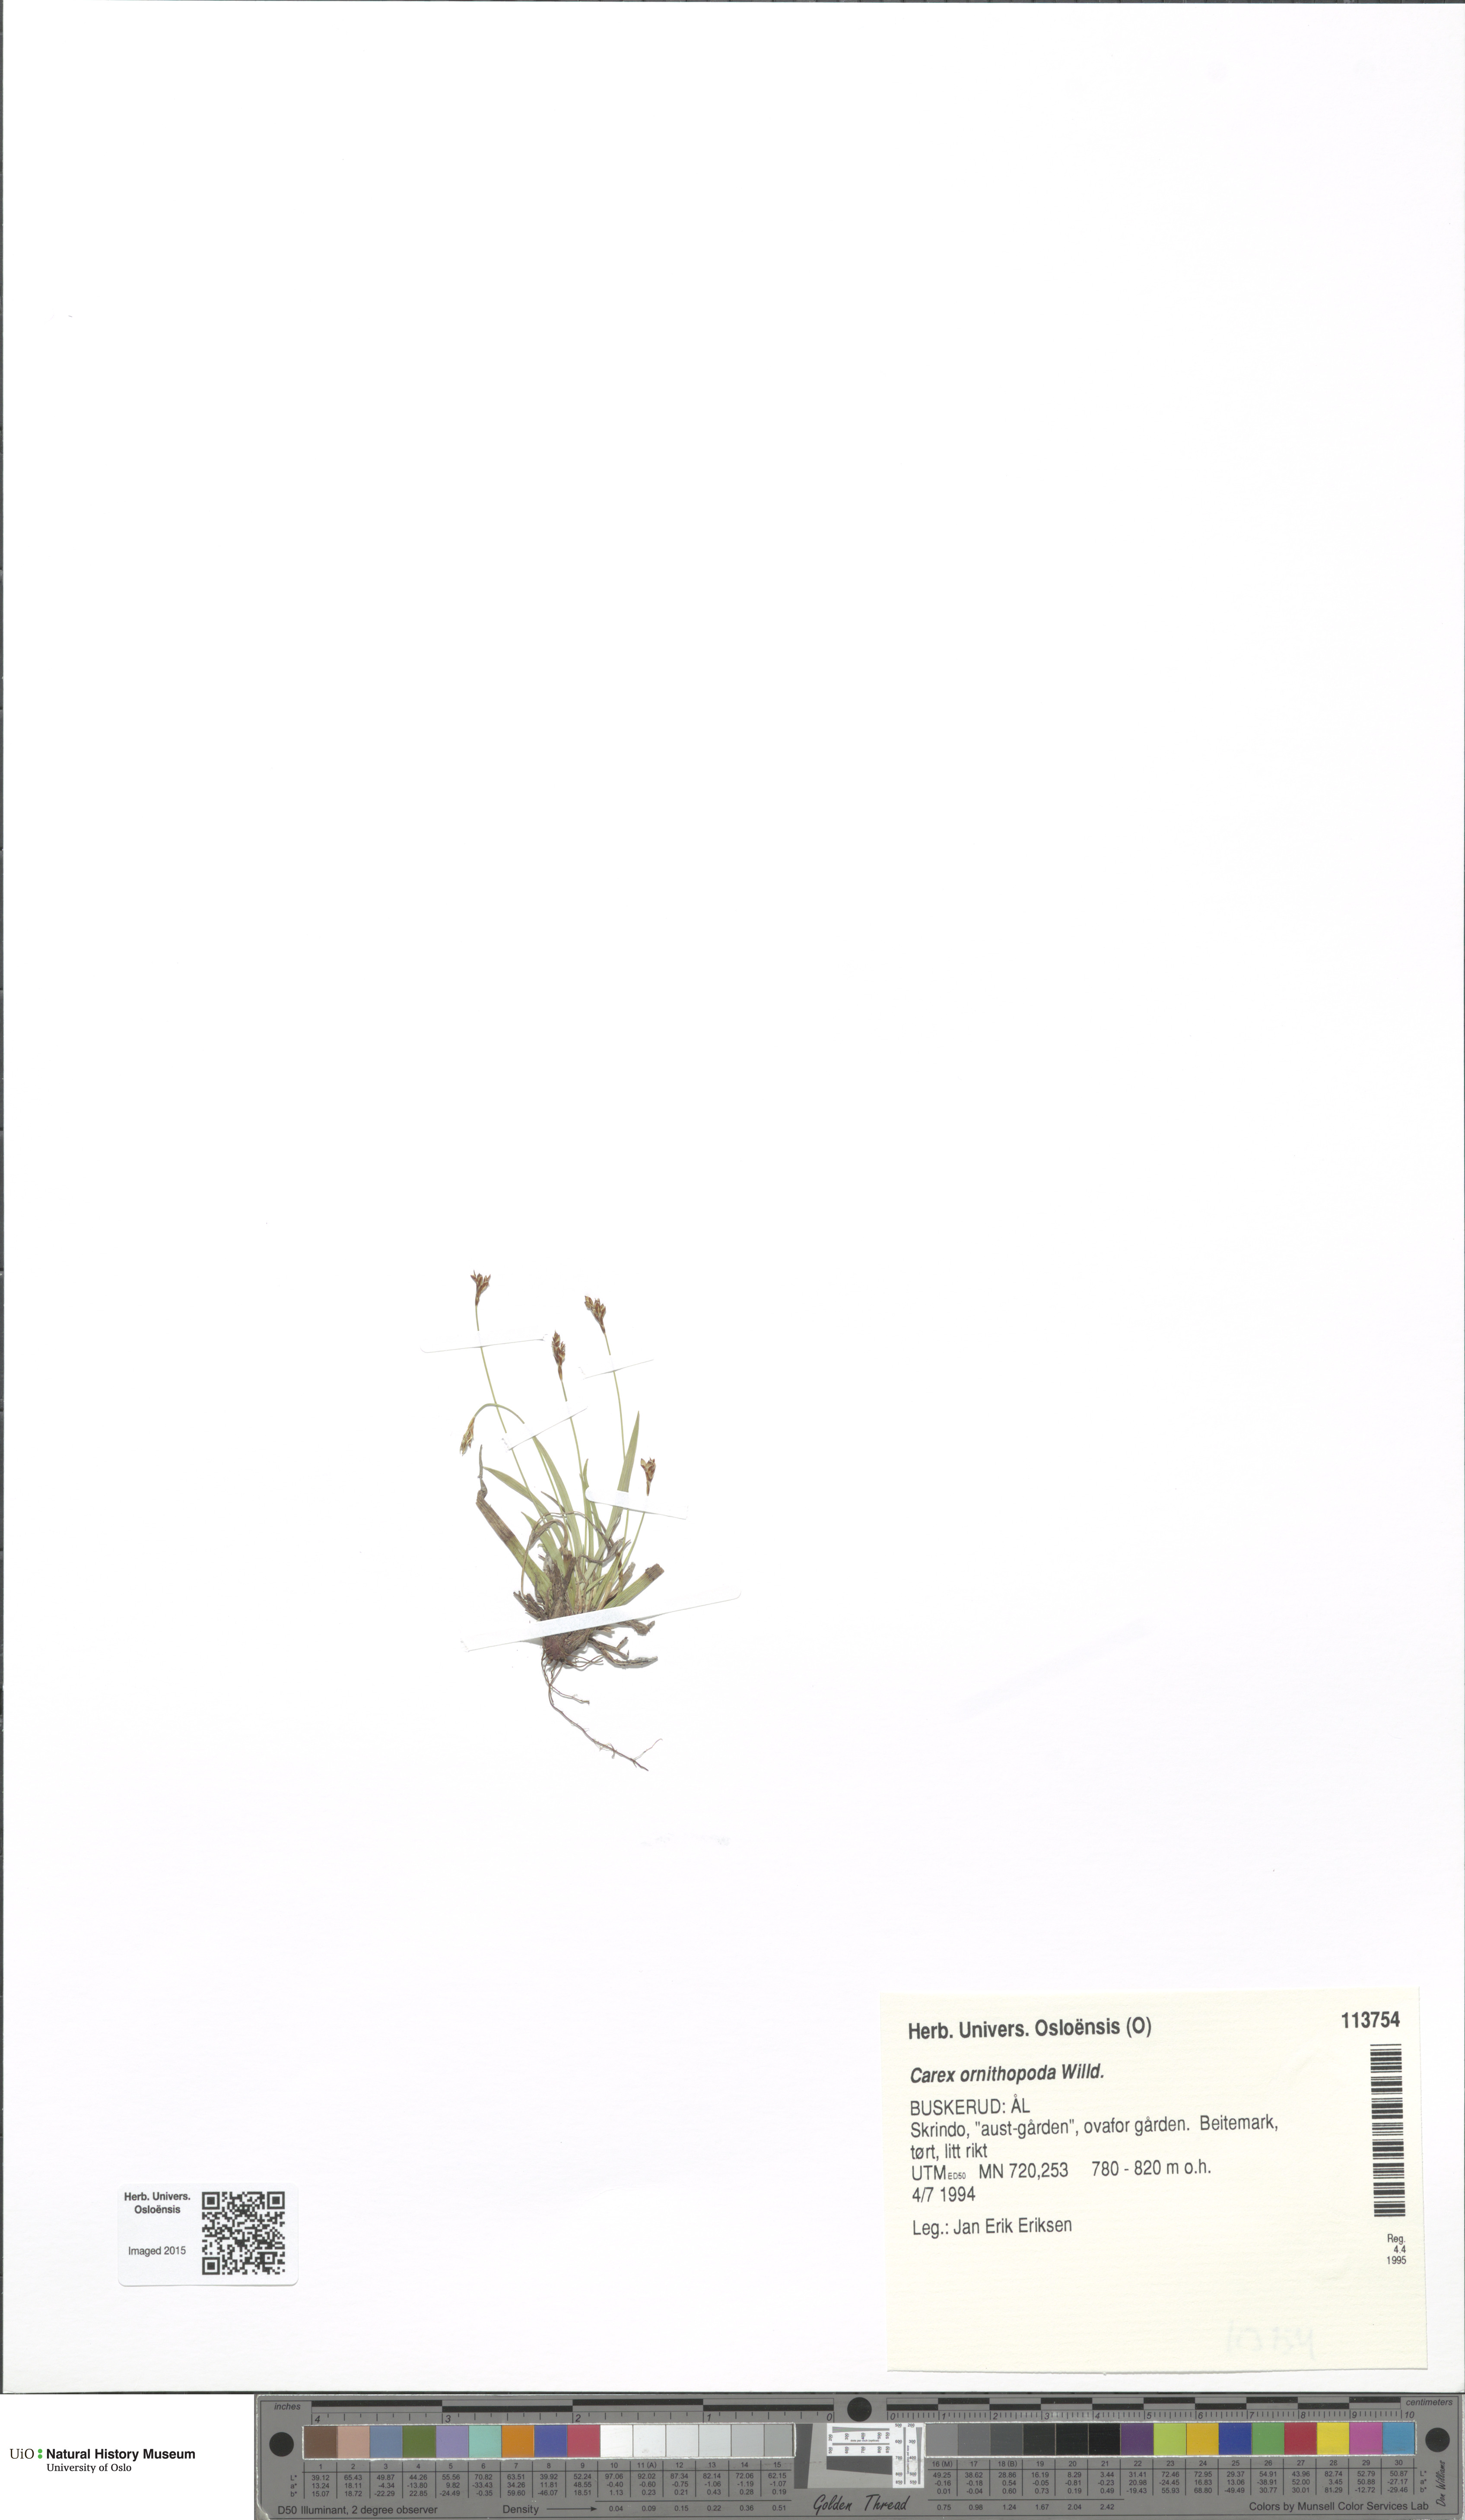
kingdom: Plantae
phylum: Tracheophyta
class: Liliopsida
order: Poales
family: Cyperaceae
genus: Carex
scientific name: Carex ornithopoda
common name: Bird's-foot sedge
